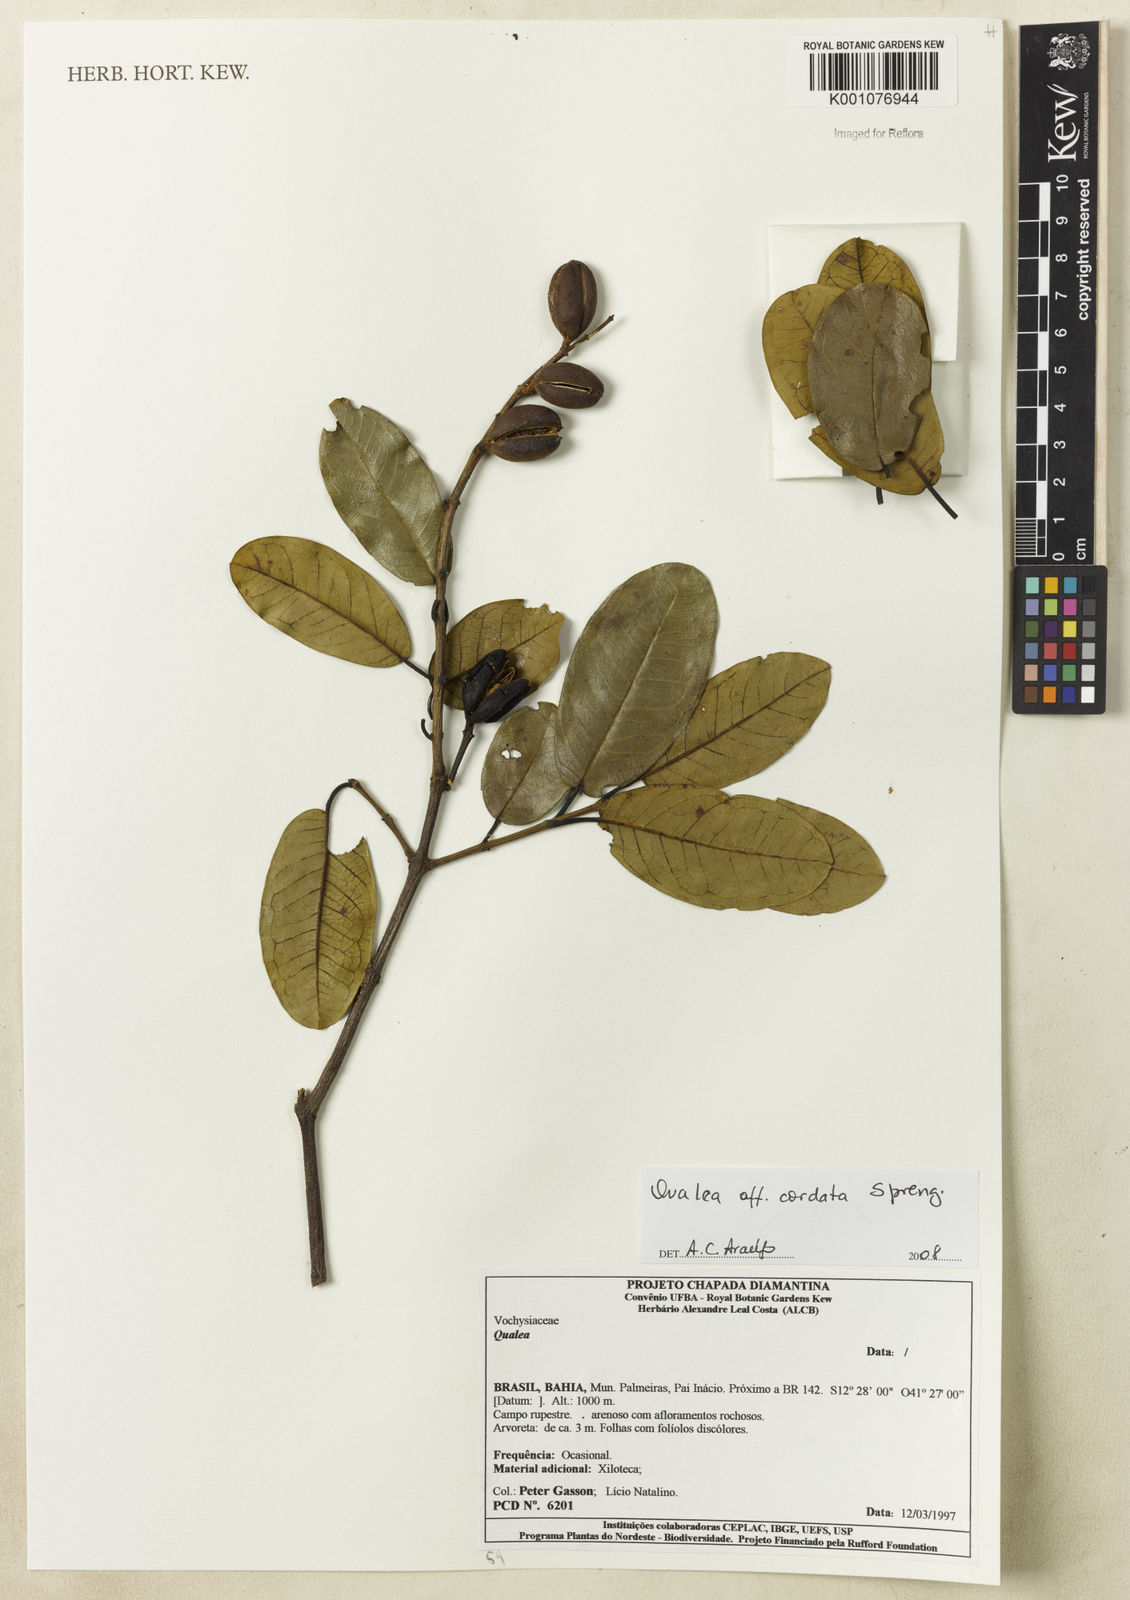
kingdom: Plantae
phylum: Tracheophyta
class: Magnoliopsida
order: Myrtales
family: Vochysiaceae
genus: Qualea
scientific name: Qualea cordata
